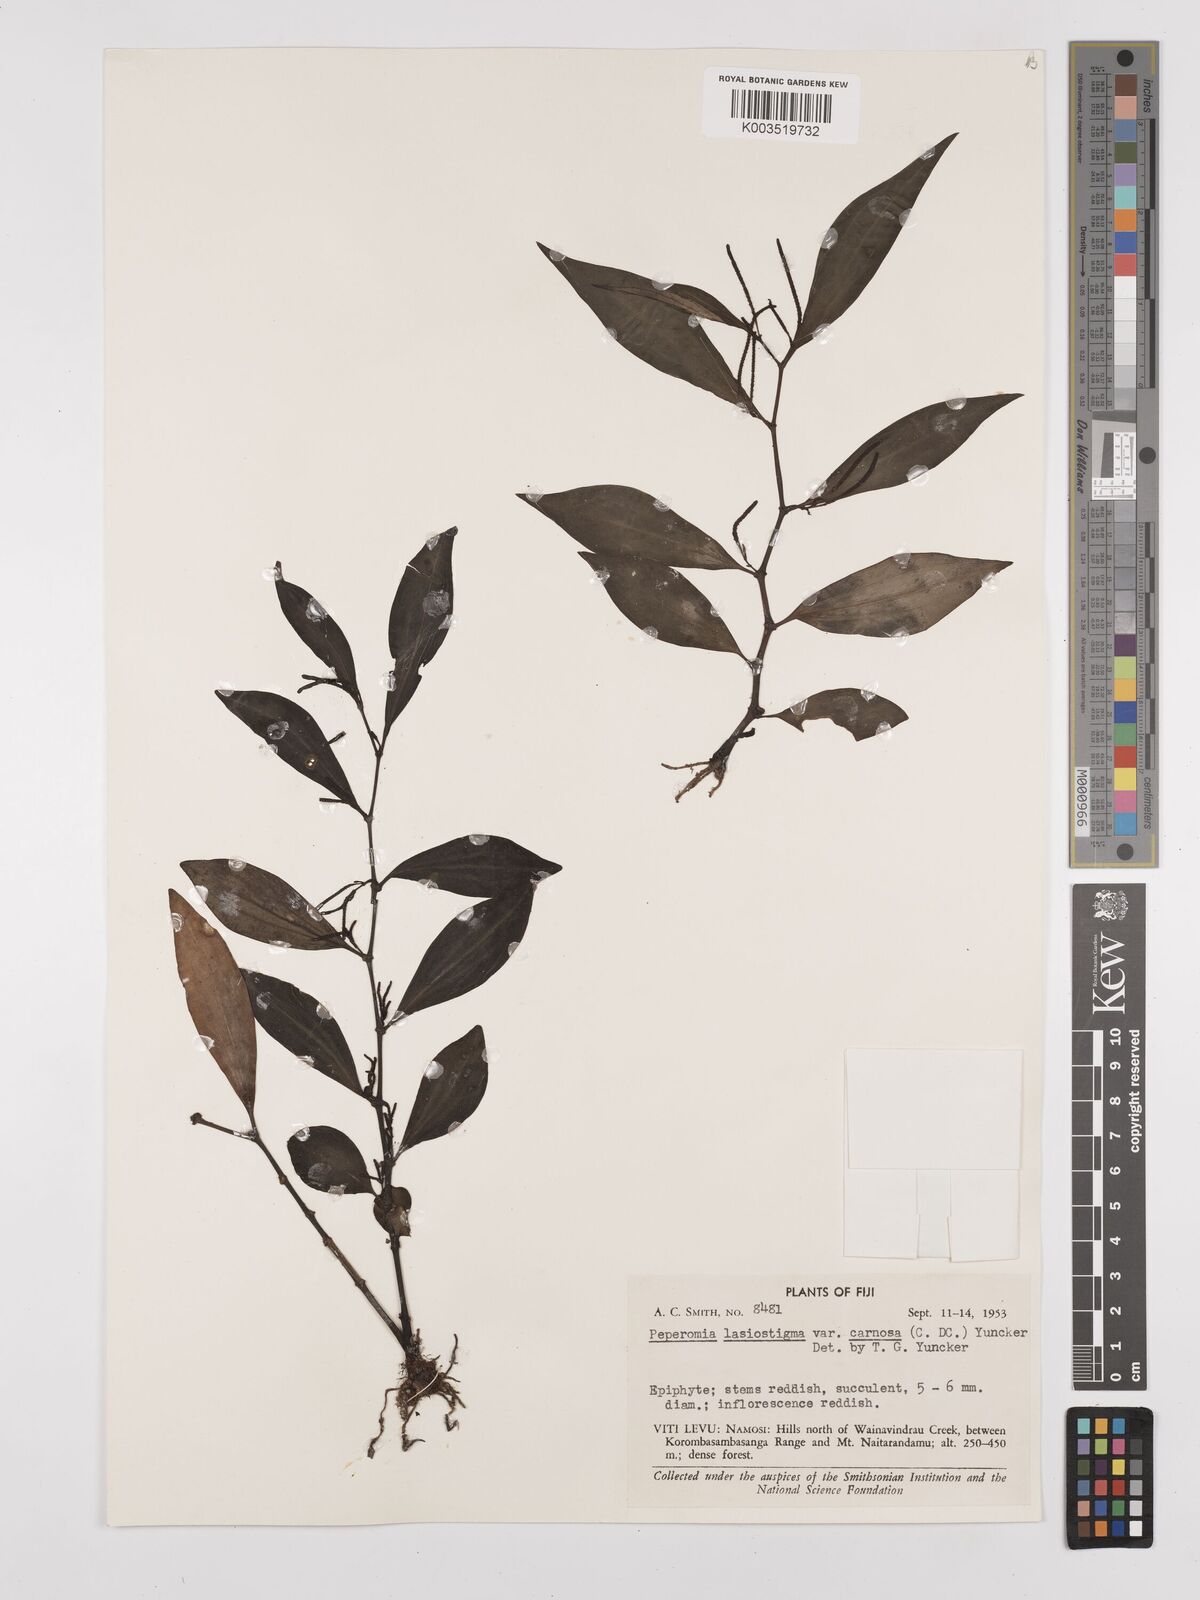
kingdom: Plantae
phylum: Tracheophyta
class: Magnoliopsida
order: Piperales
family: Piperaceae
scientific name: Piperaceae
